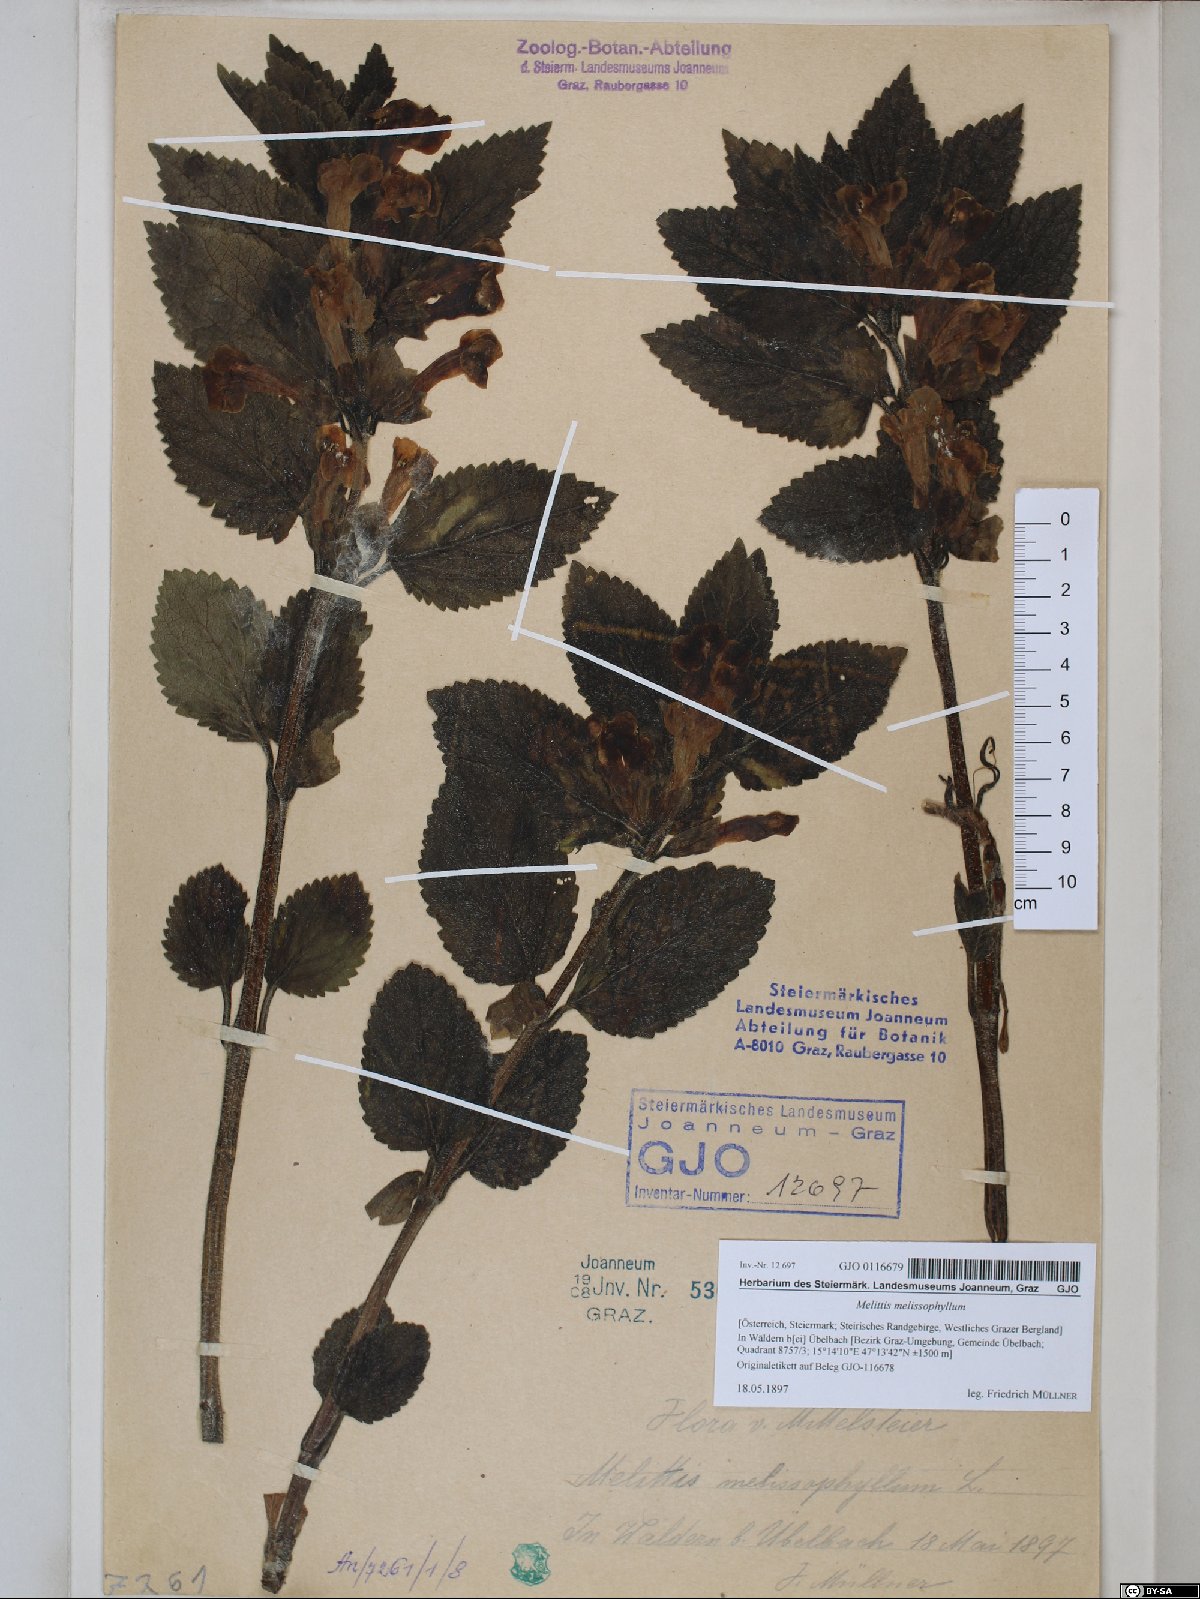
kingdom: Plantae
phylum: Tracheophyta
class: Magnoliopsida
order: Lamiales
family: Lamiaceae
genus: Melittis
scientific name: Melittis melissophyllum
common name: Bastard balm
